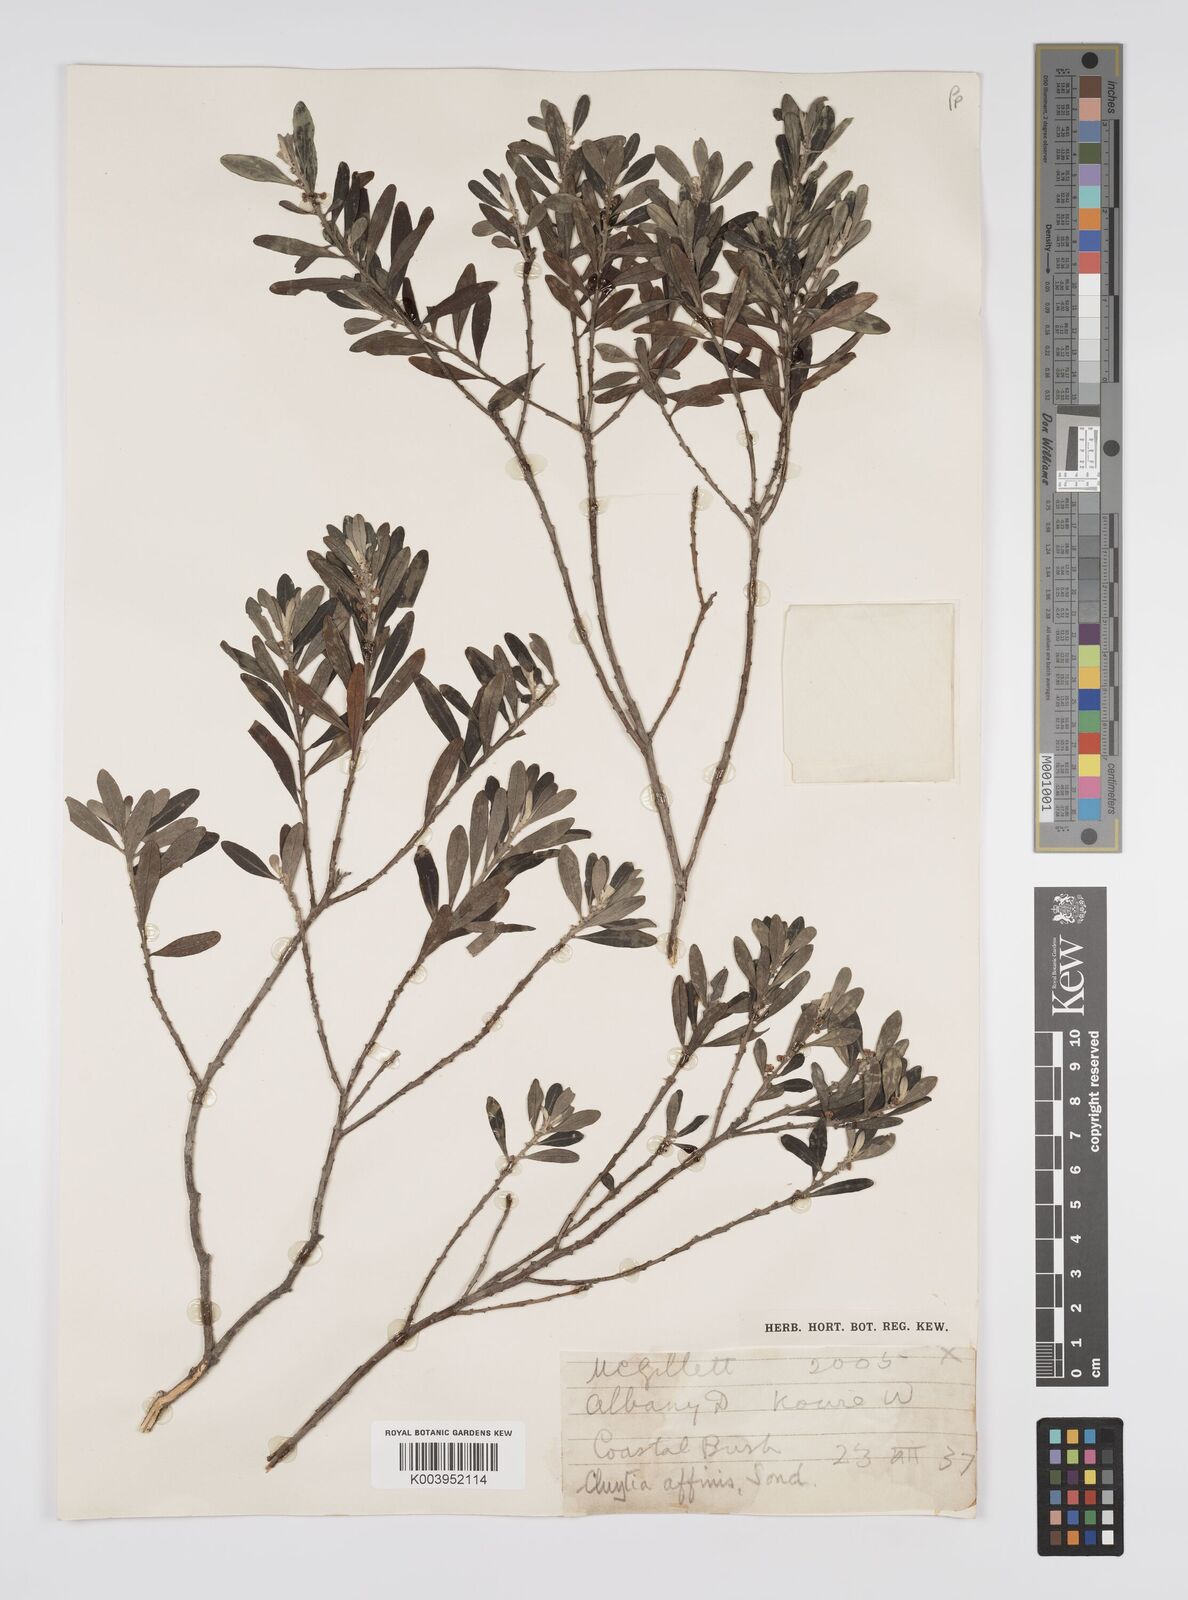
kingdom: Plantae
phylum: Tracheophyta
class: Magnoliopsida
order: Malpighiales
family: Peraceae
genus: Clutia
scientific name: Clutia affinis
